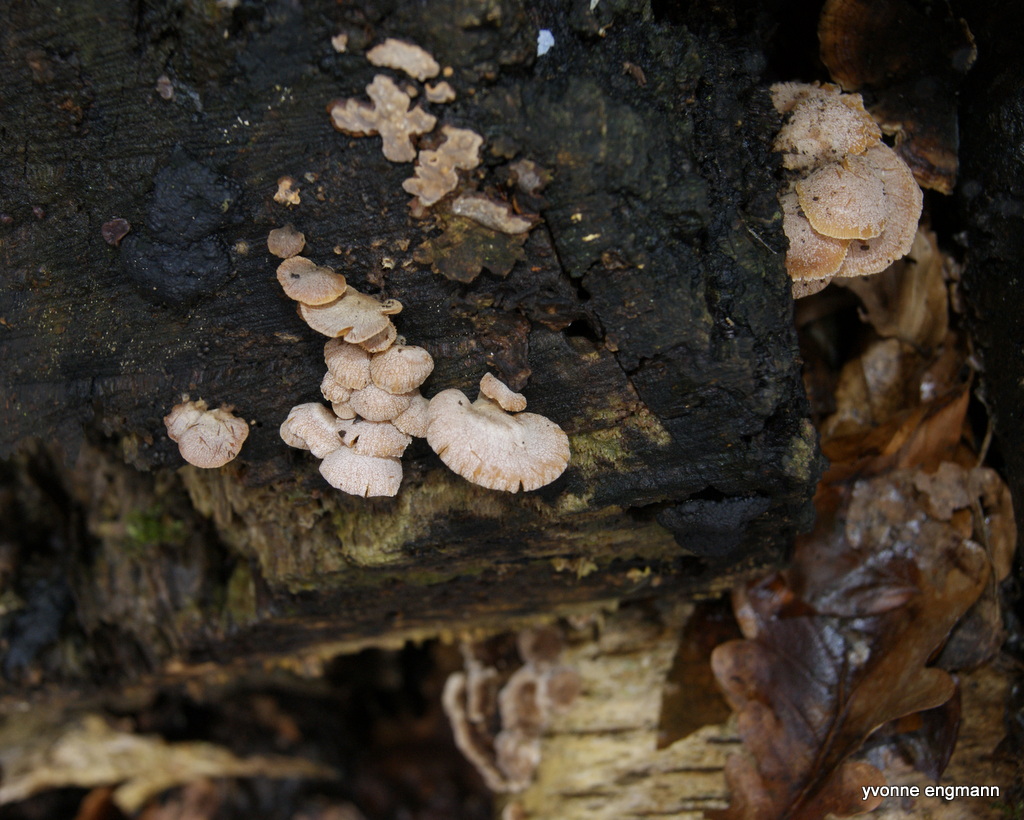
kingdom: Fungi
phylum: Basidiomycota
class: Agaricomycetes
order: Agaricales
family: Mycenaceae
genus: Panellus
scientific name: Panellus stipticus
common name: kliddet epaulethat
